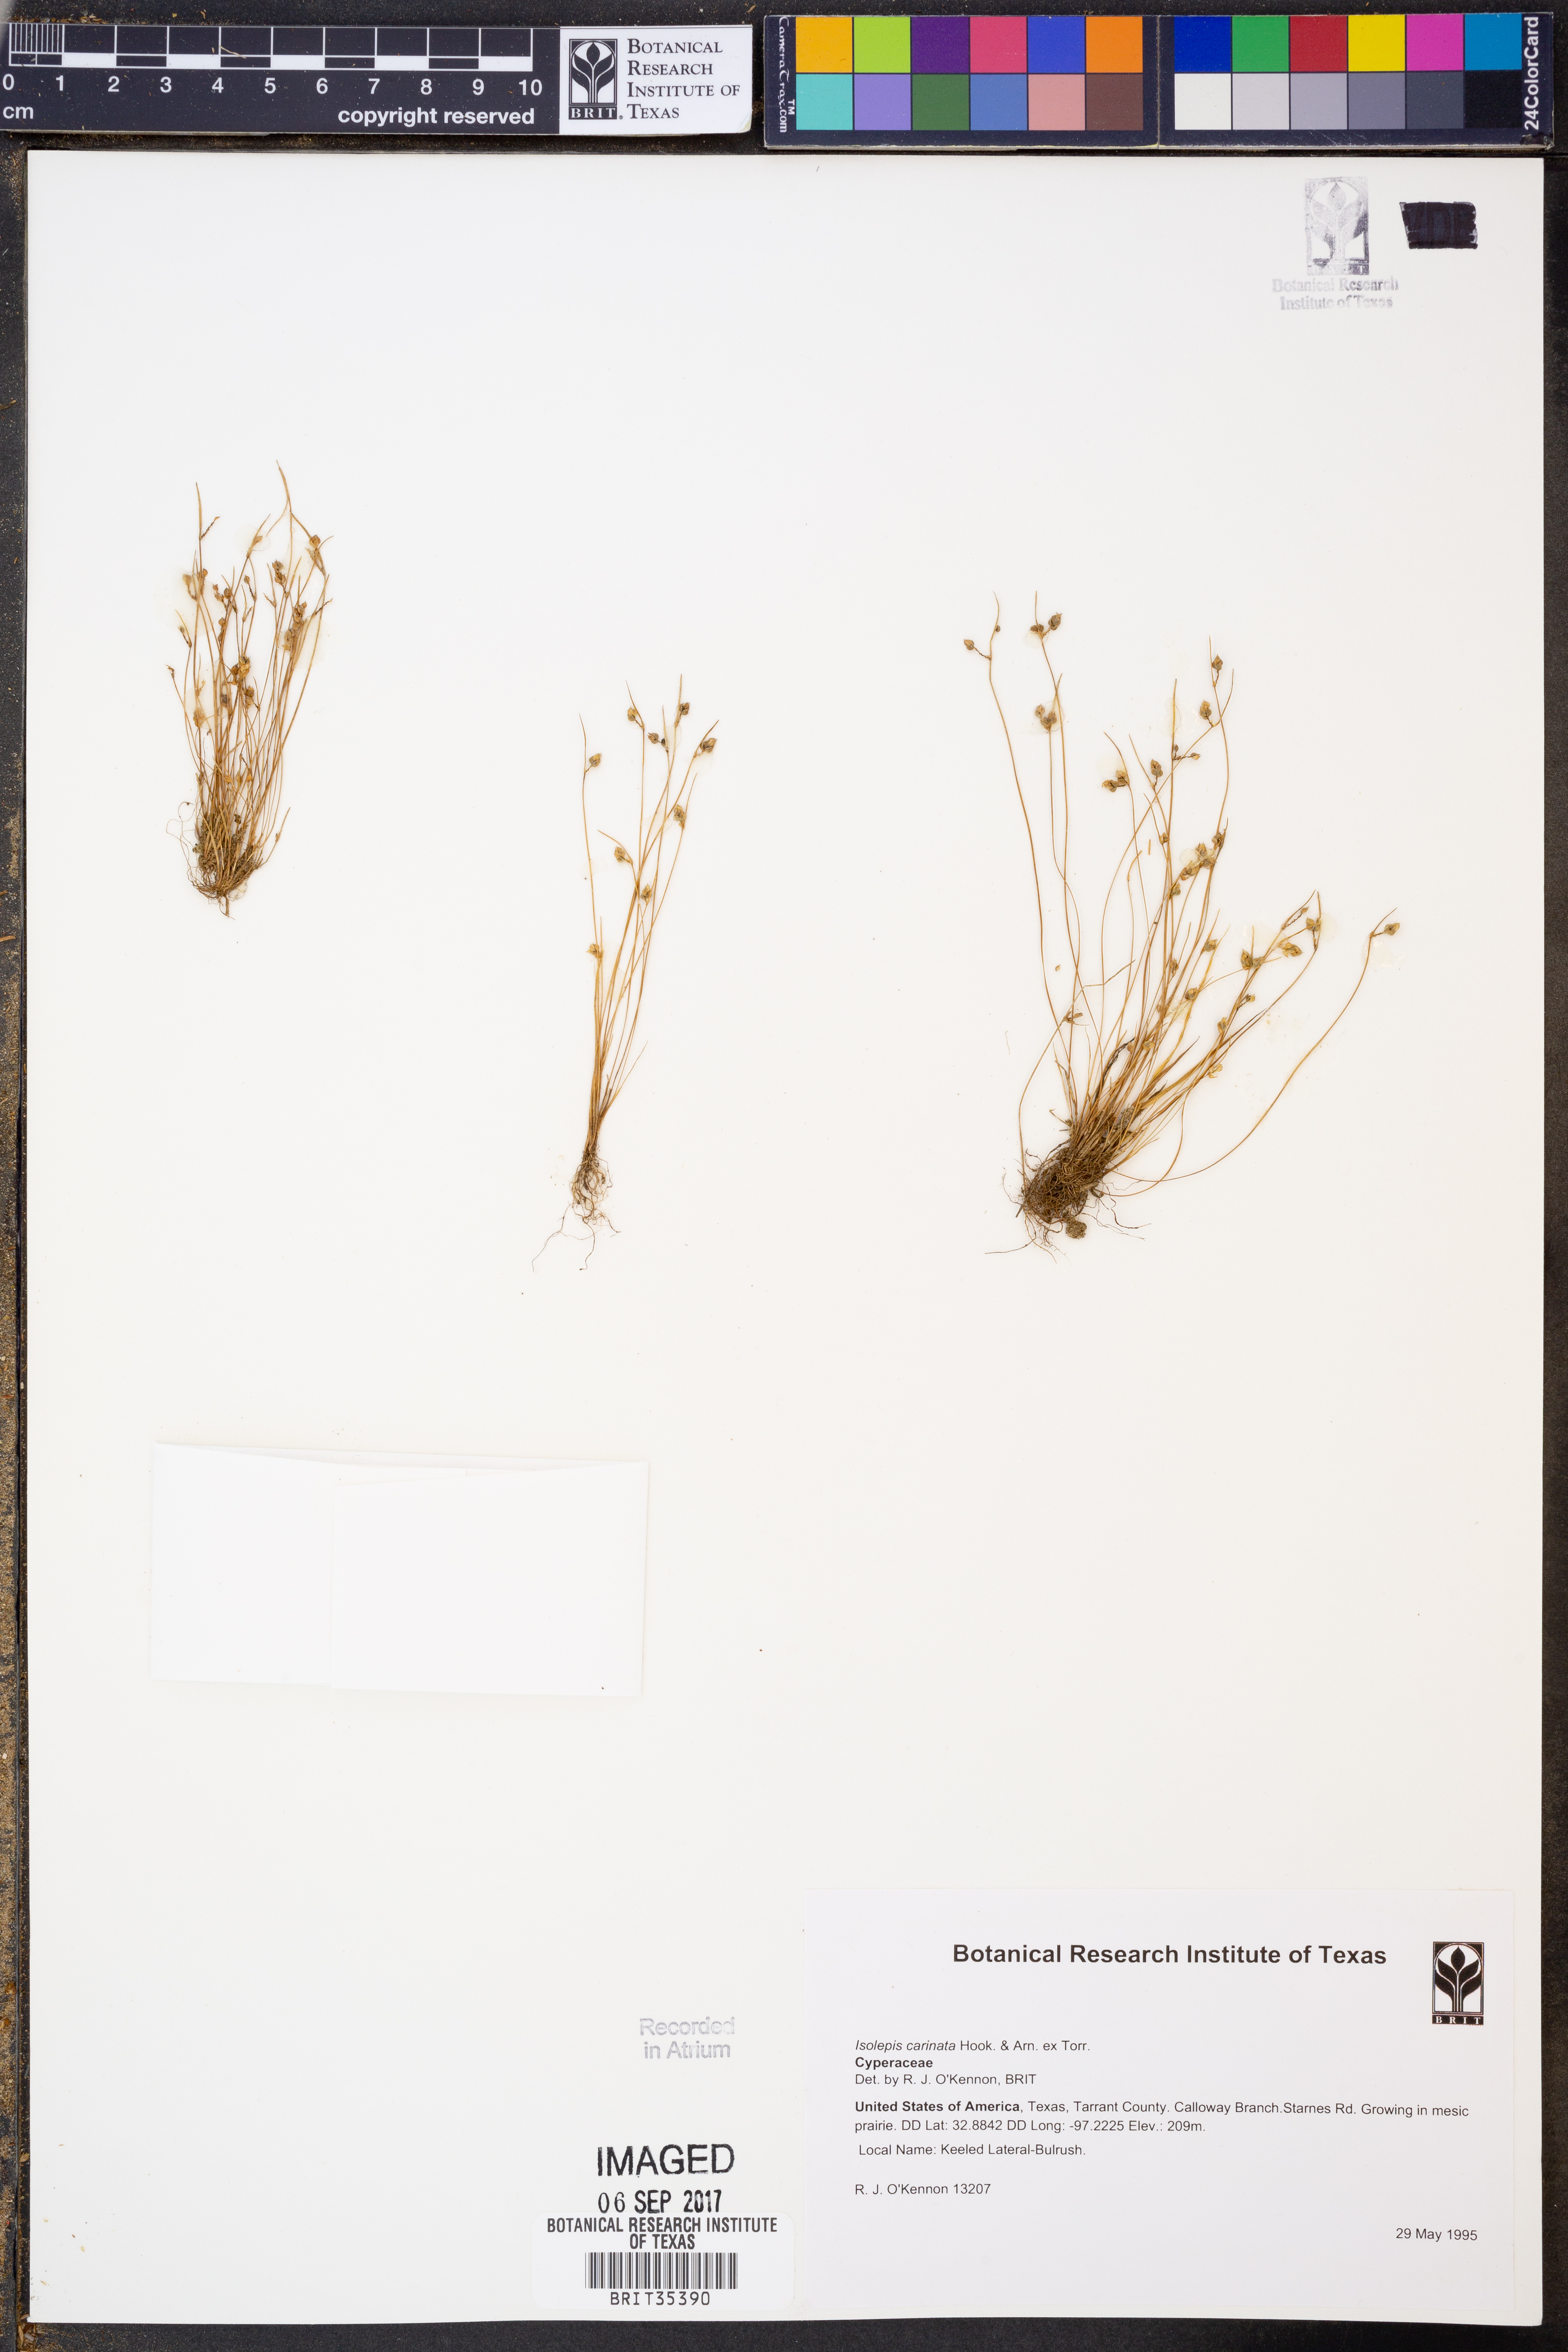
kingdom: Plantae
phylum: Tracheophyta
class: Liliopsida
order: Poales
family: Cyperaceae
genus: Isolepis
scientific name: Isolepis carinata
